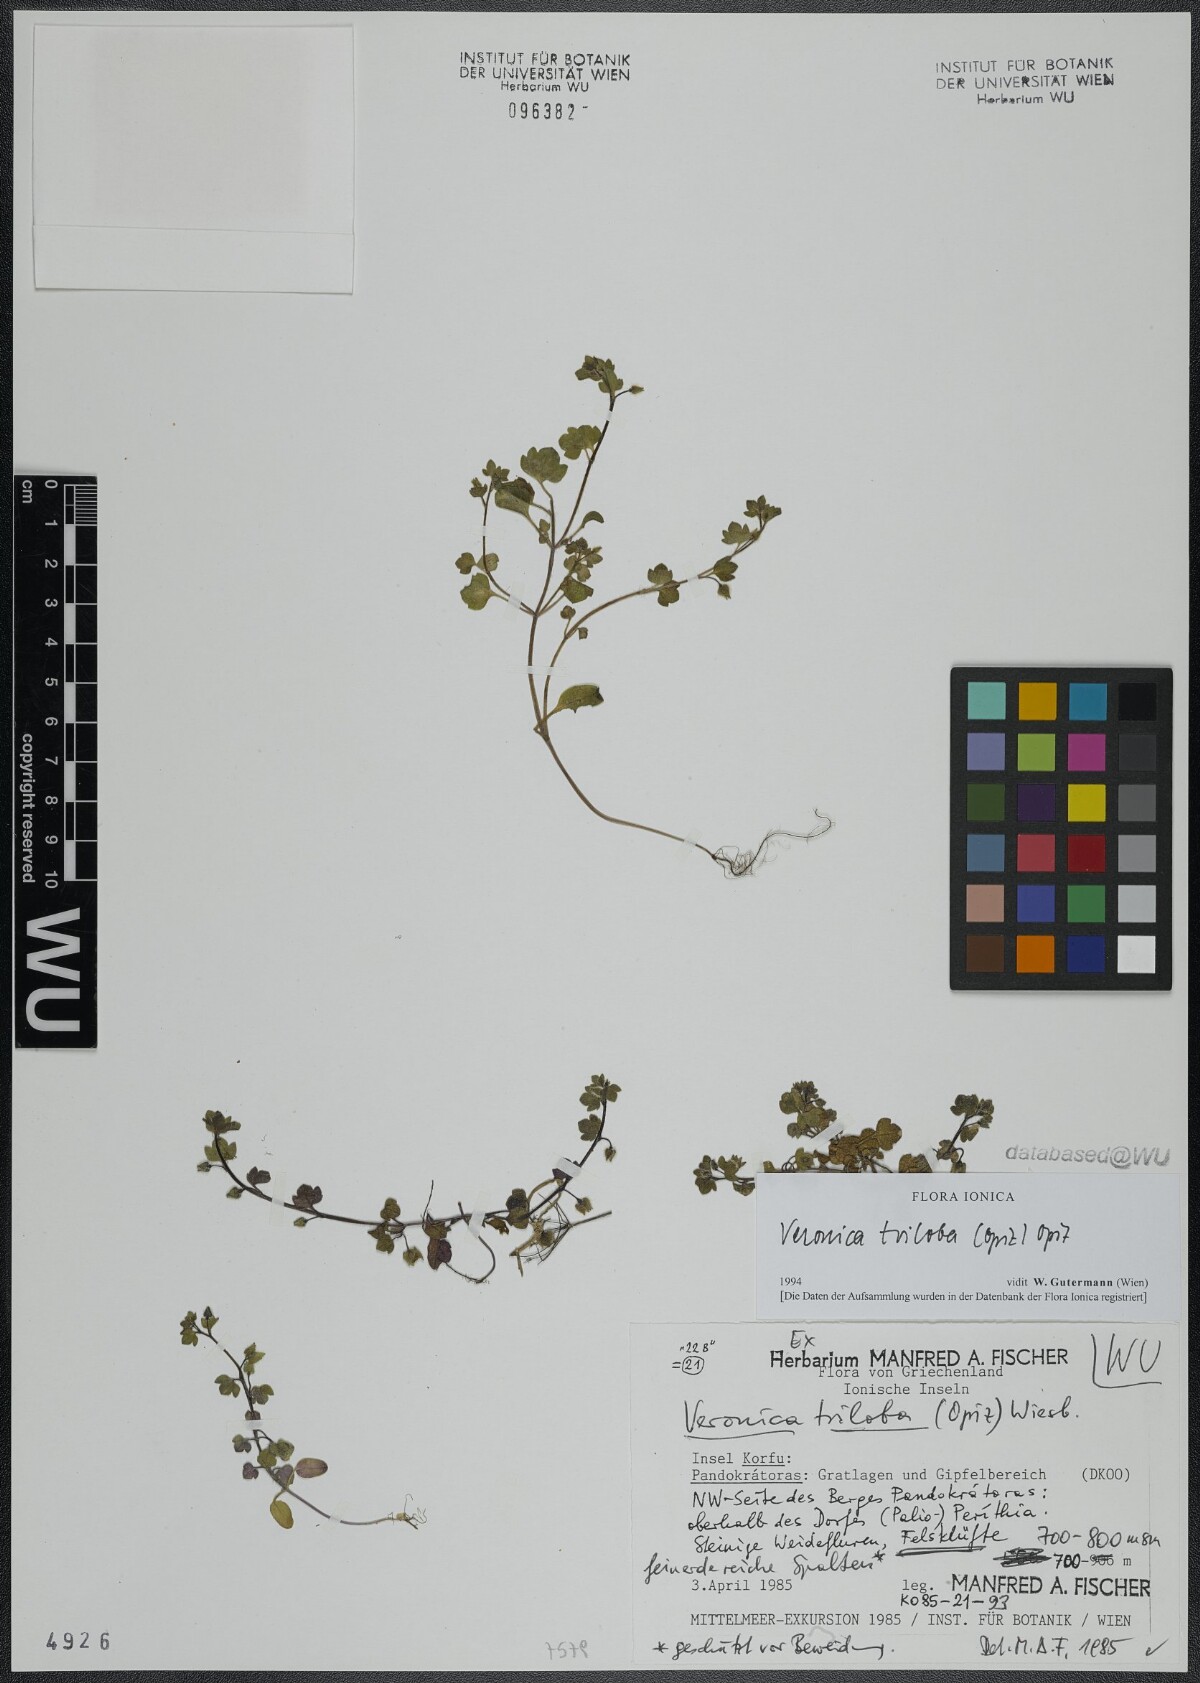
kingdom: Plantae
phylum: Tracheophyta
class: Magnoliopsida
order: Lamiales
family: Plantaginaceae
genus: Veronica
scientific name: Veronica triloba
